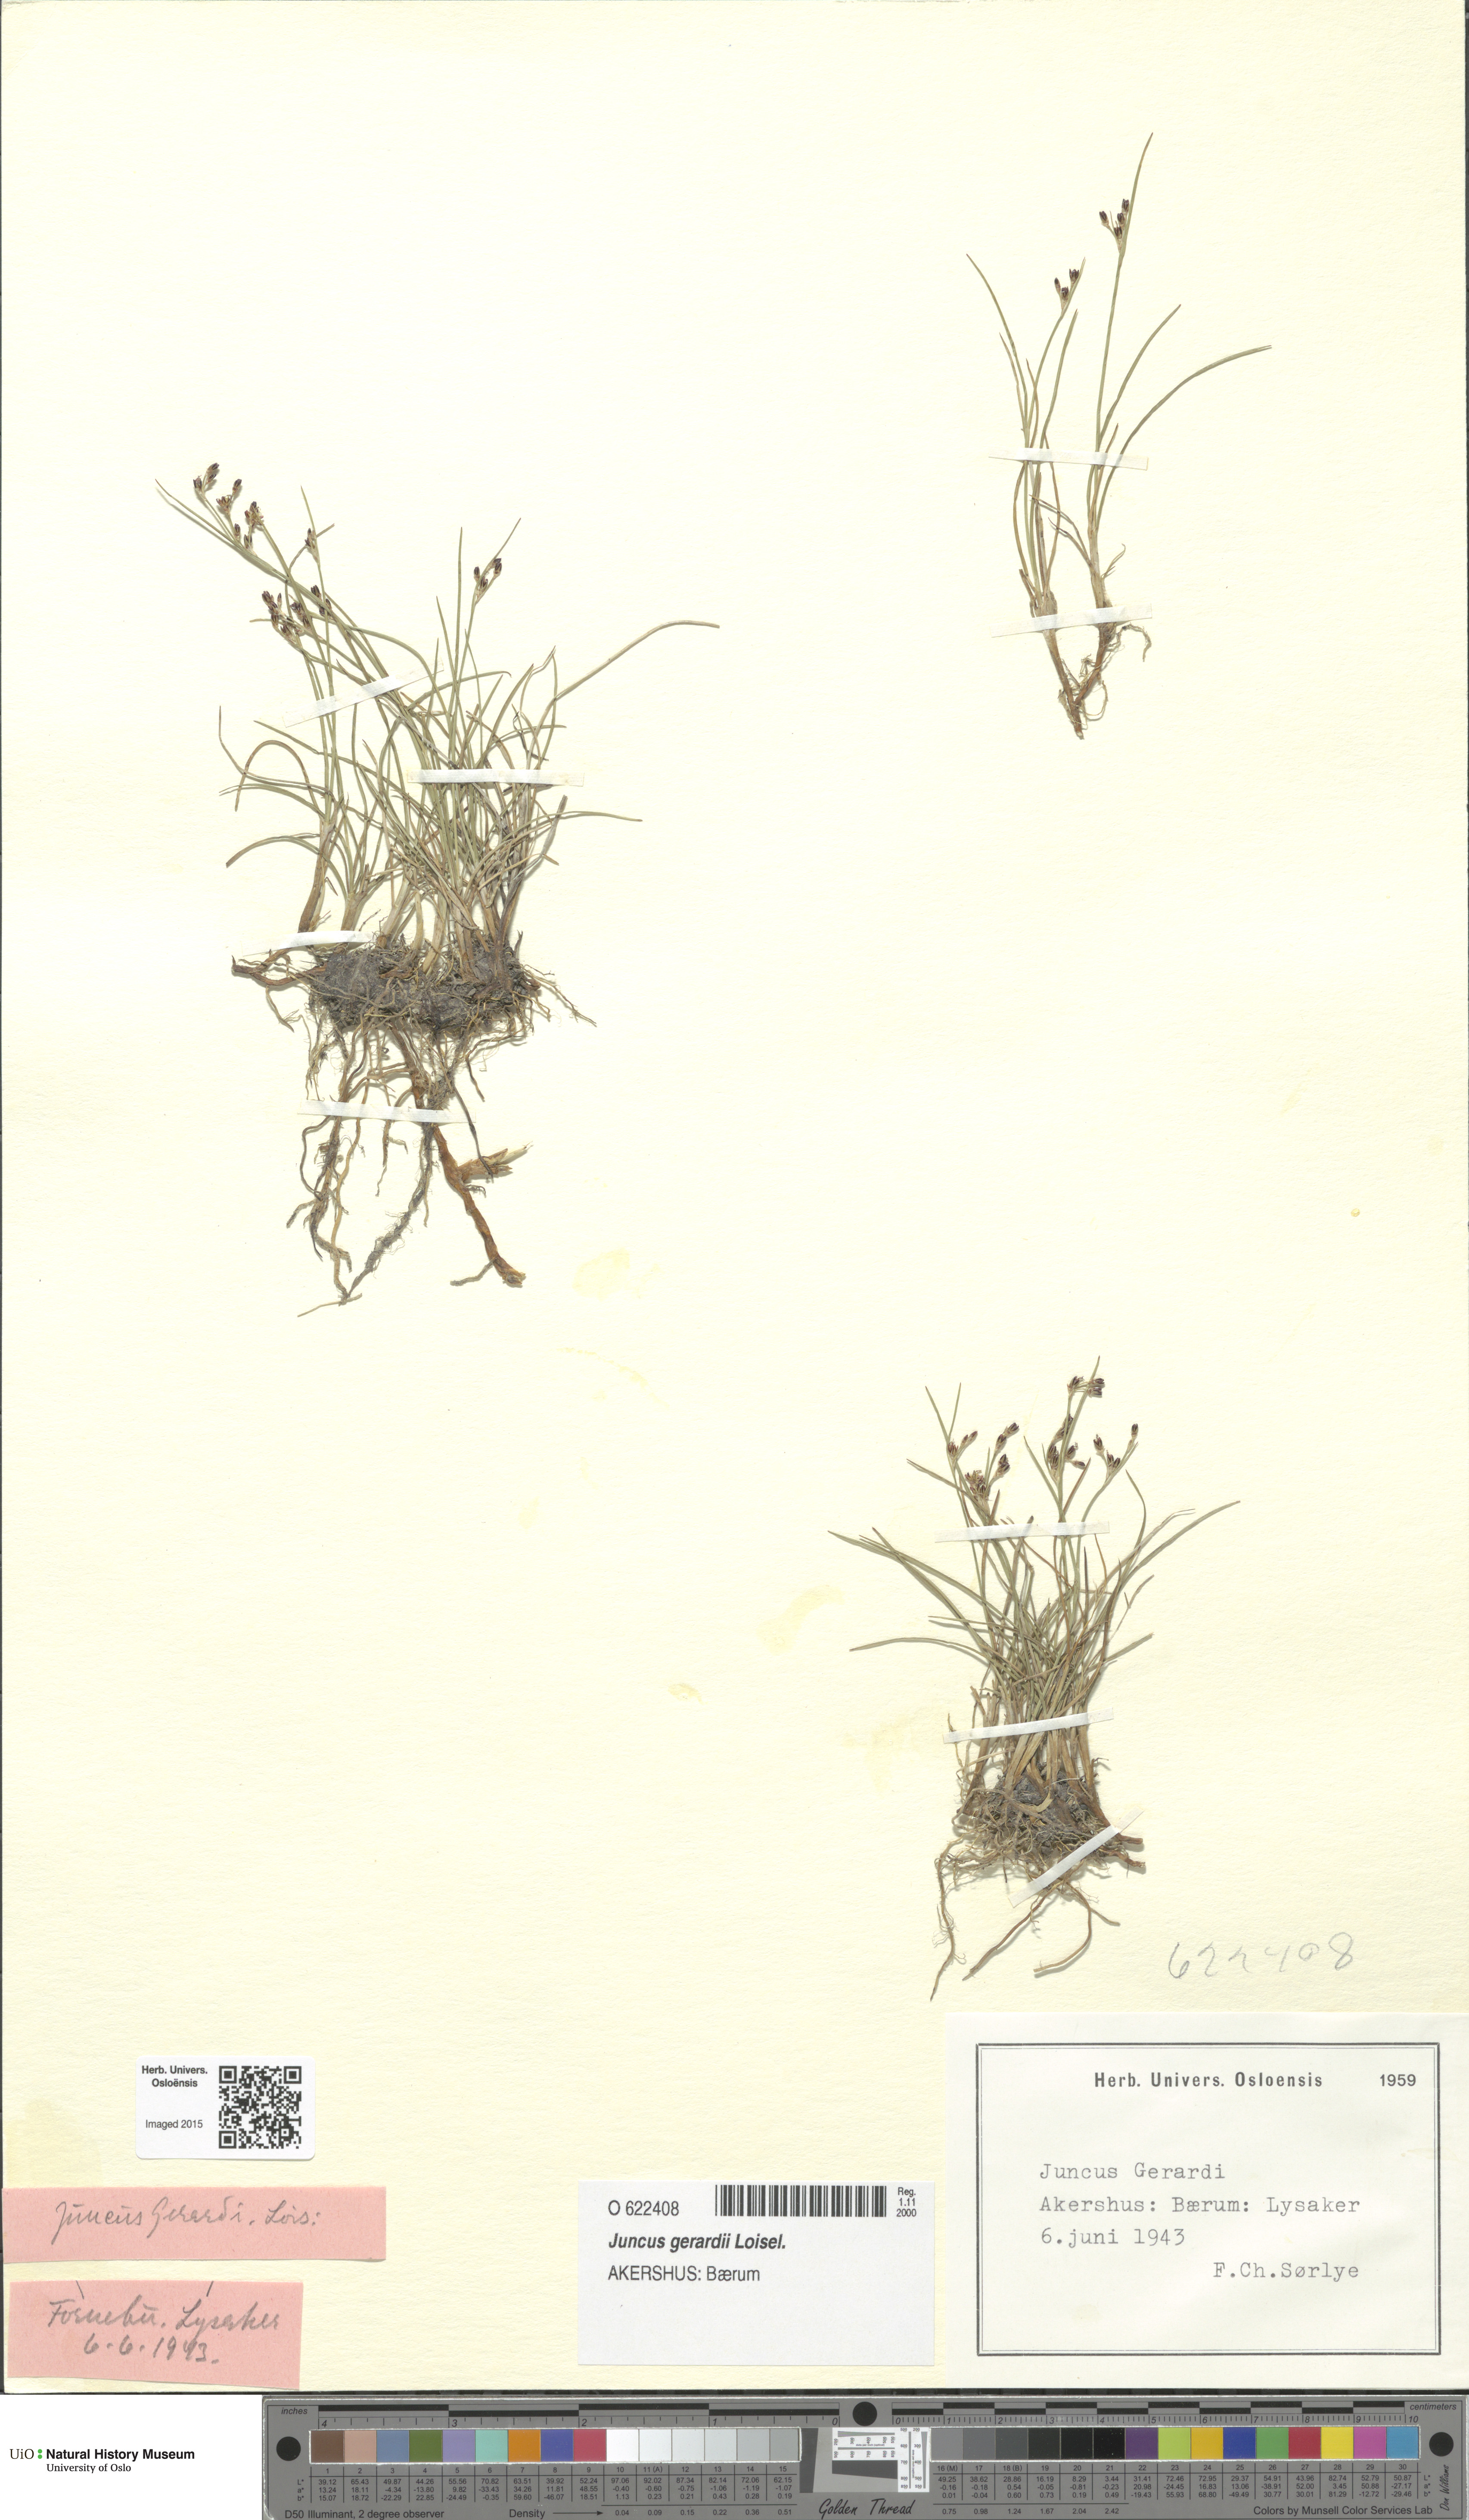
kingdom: Plantae
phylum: Tracheophyta
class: Liliopsida
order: Poales
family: Juncaceae
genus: Juncus
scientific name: Juncus gerardi
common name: Saltmarsh rush
